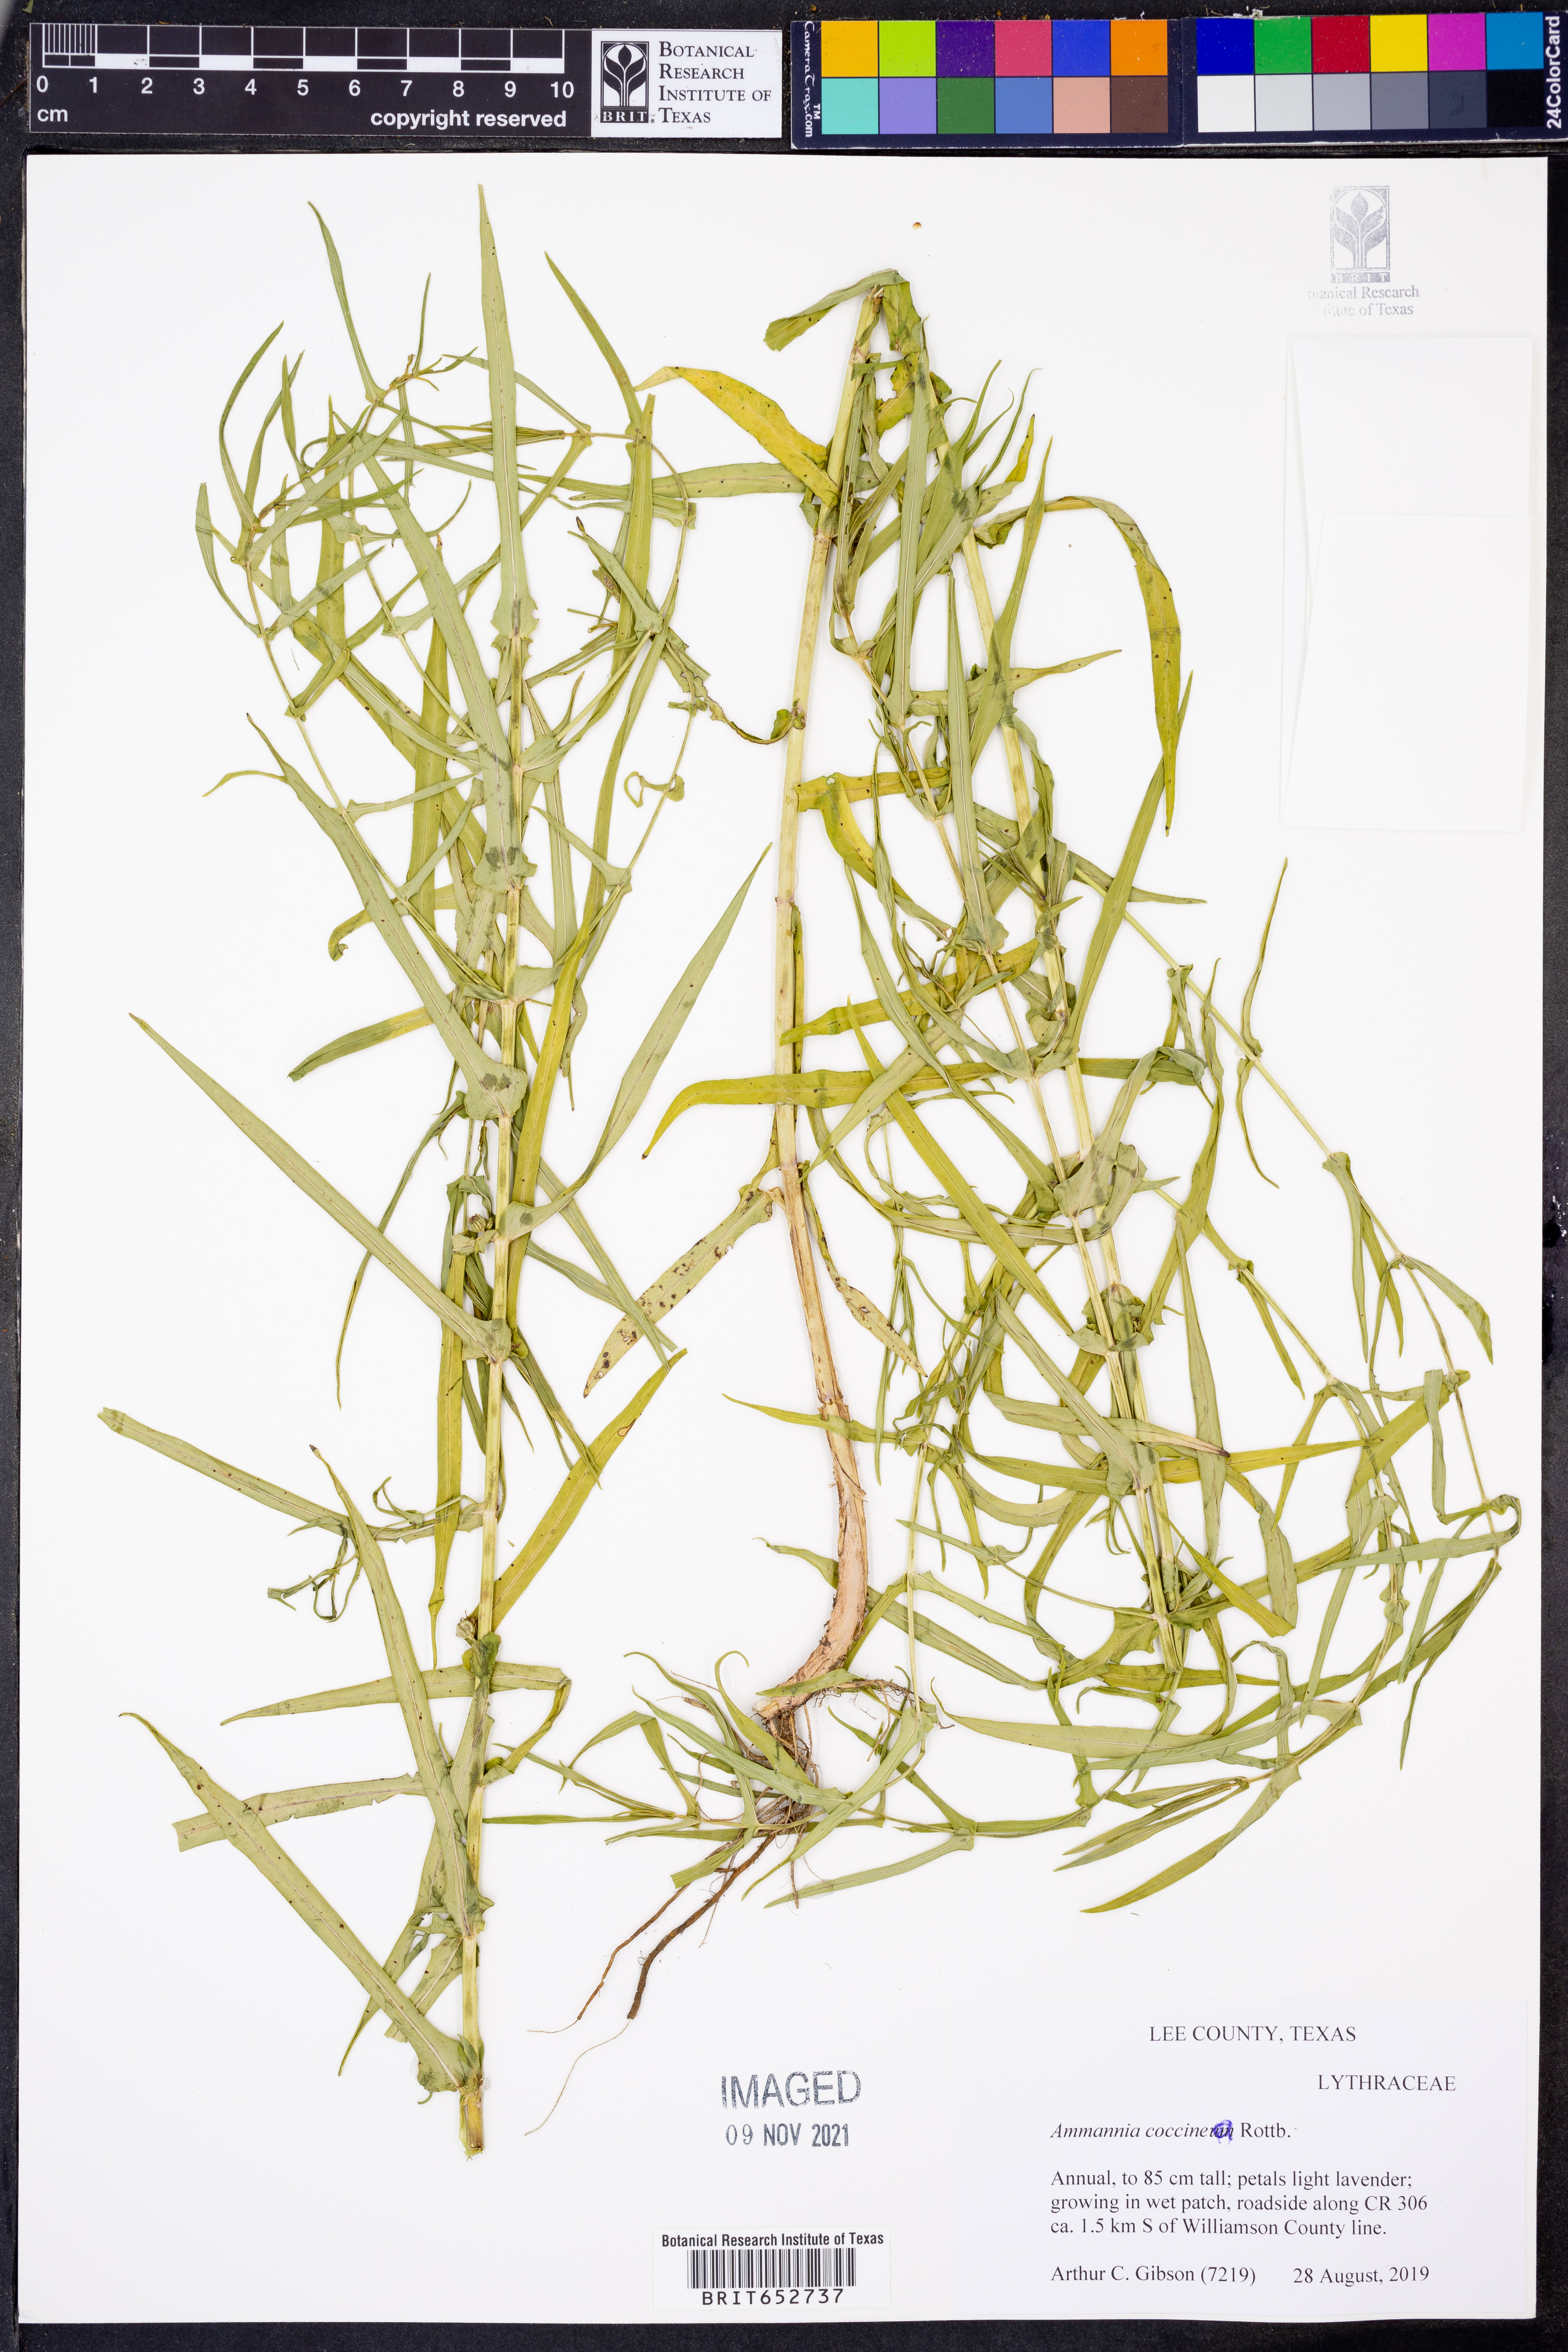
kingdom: Plantae
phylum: Tracheophyta
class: Magnoliopsida
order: Myrtales
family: Lythraceae
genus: Ammannia
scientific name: Ammannia coccinea
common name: Valley redstem
